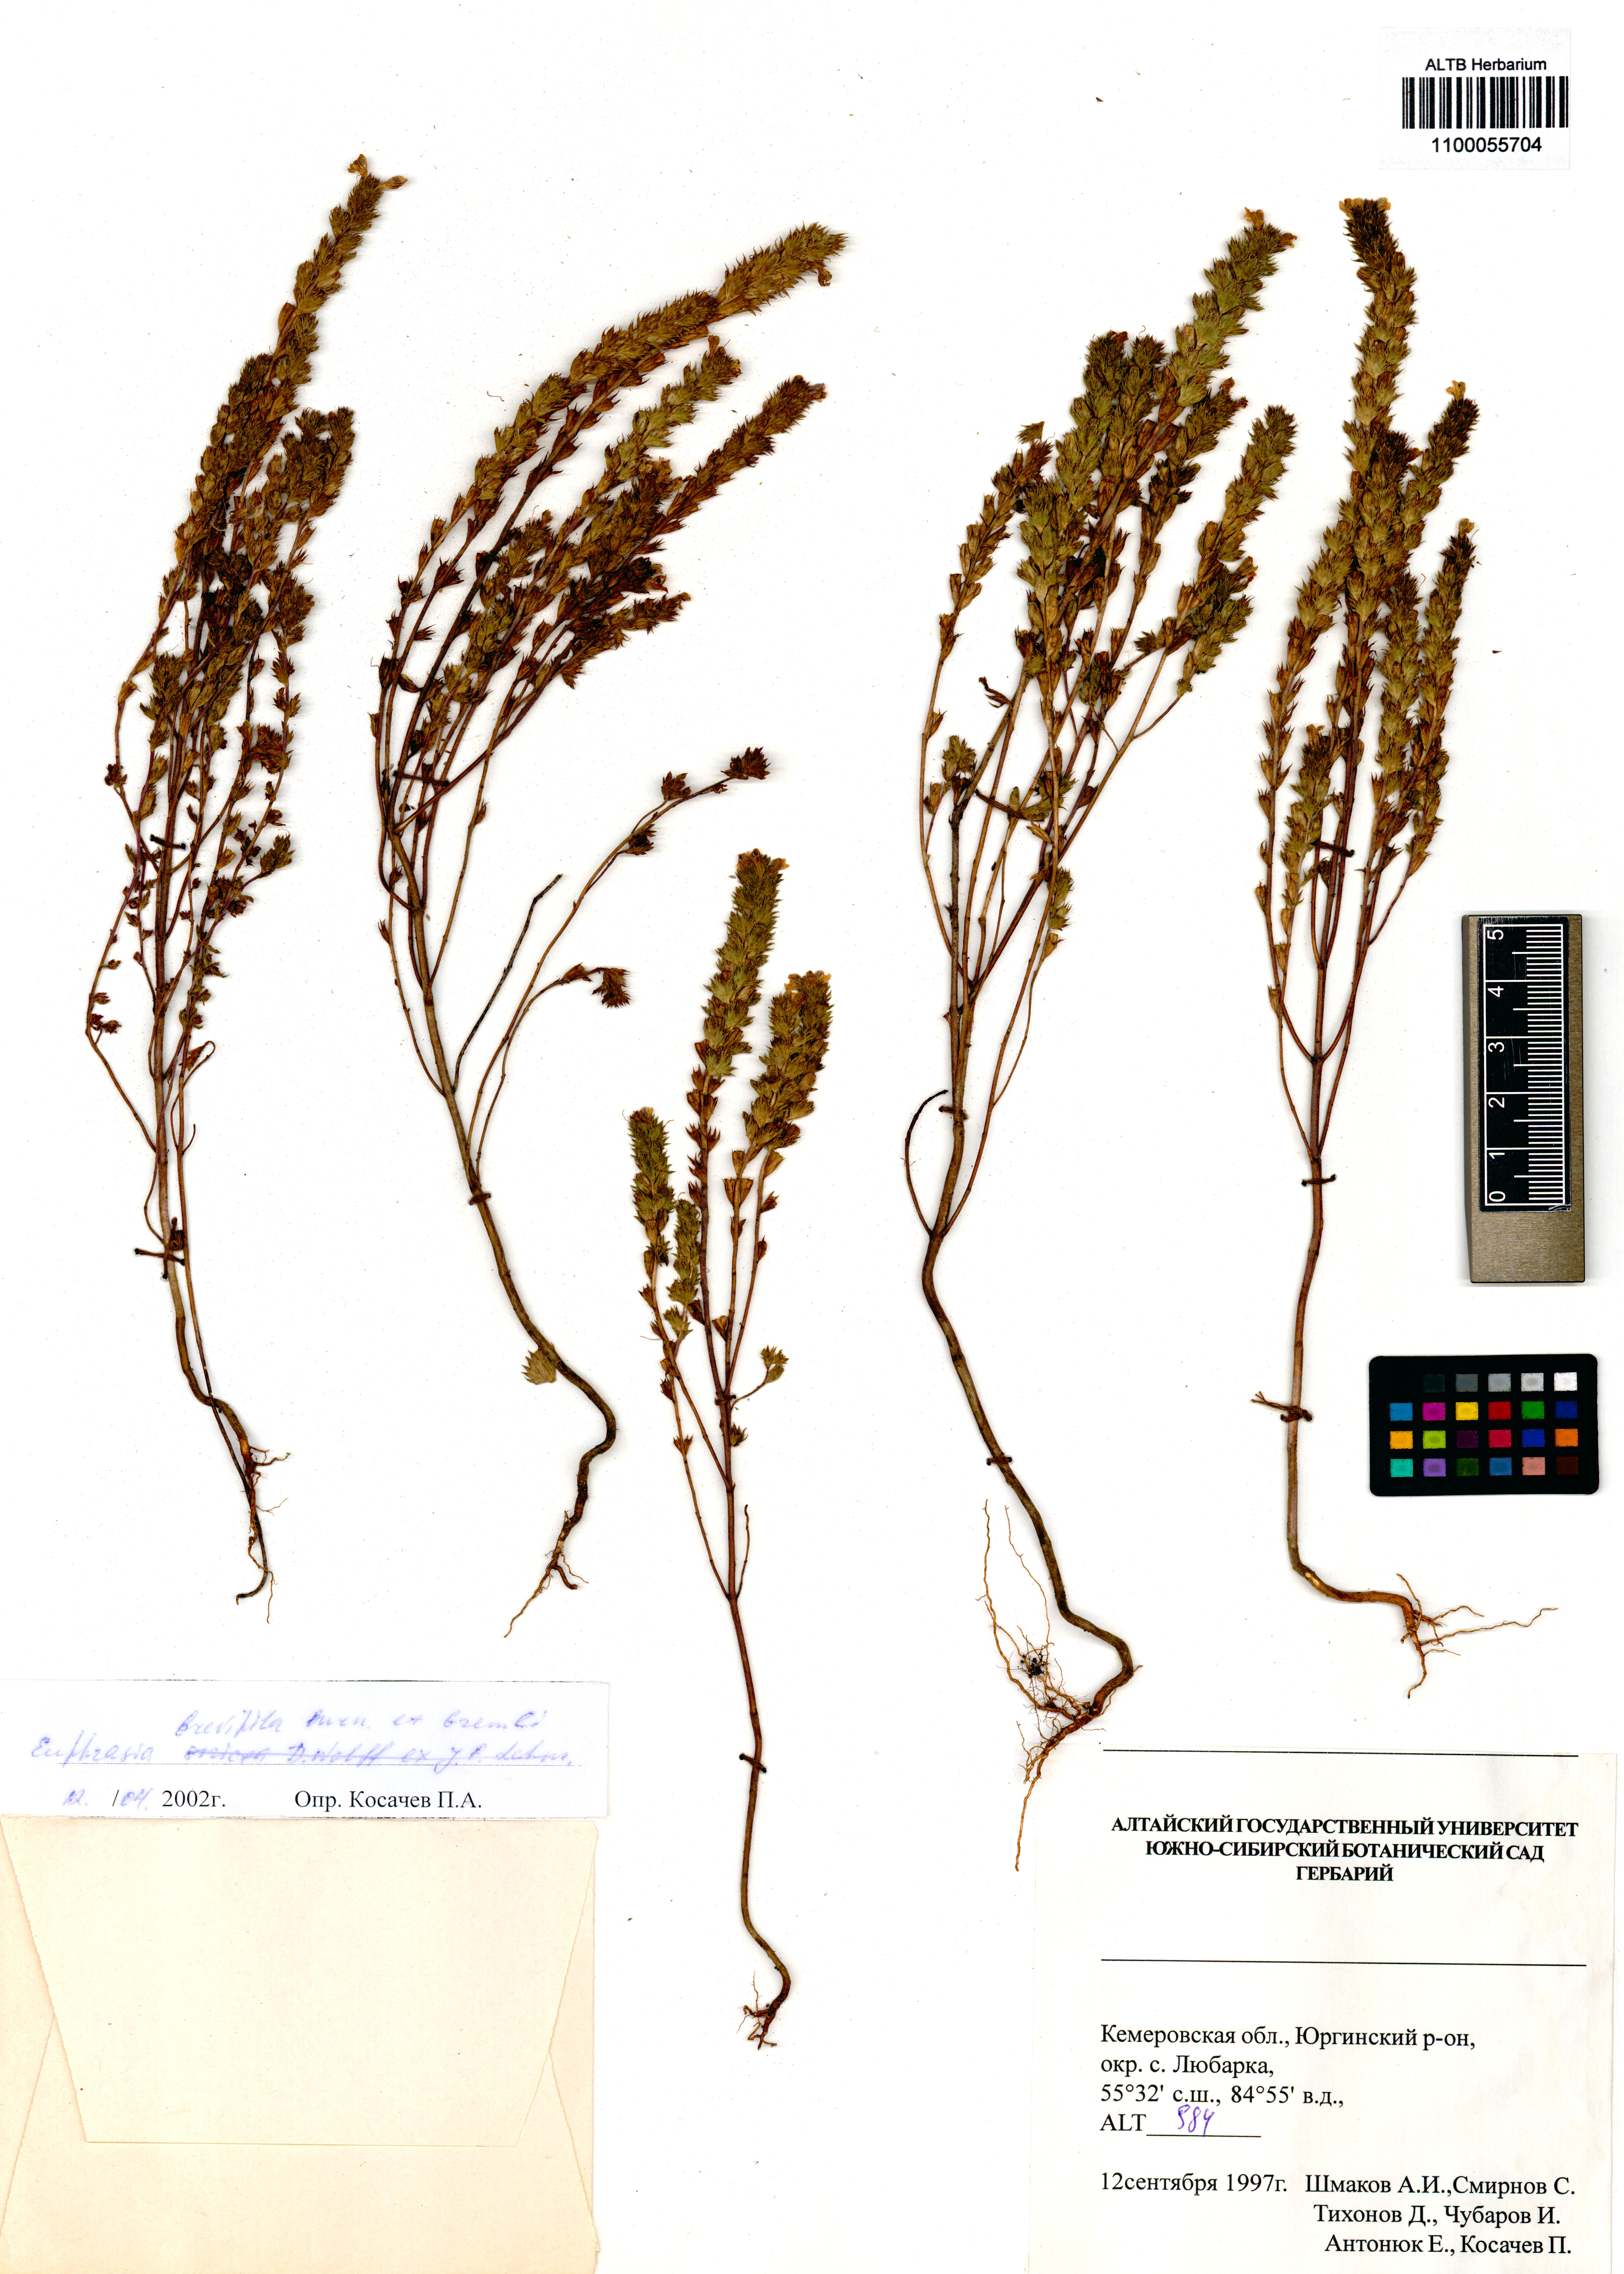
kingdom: Plantae
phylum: Tracheophyta
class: Magnoliopsida
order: Lamiales
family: Orobanchaceae
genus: Euphrasia
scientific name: Euphrasia vernalis
